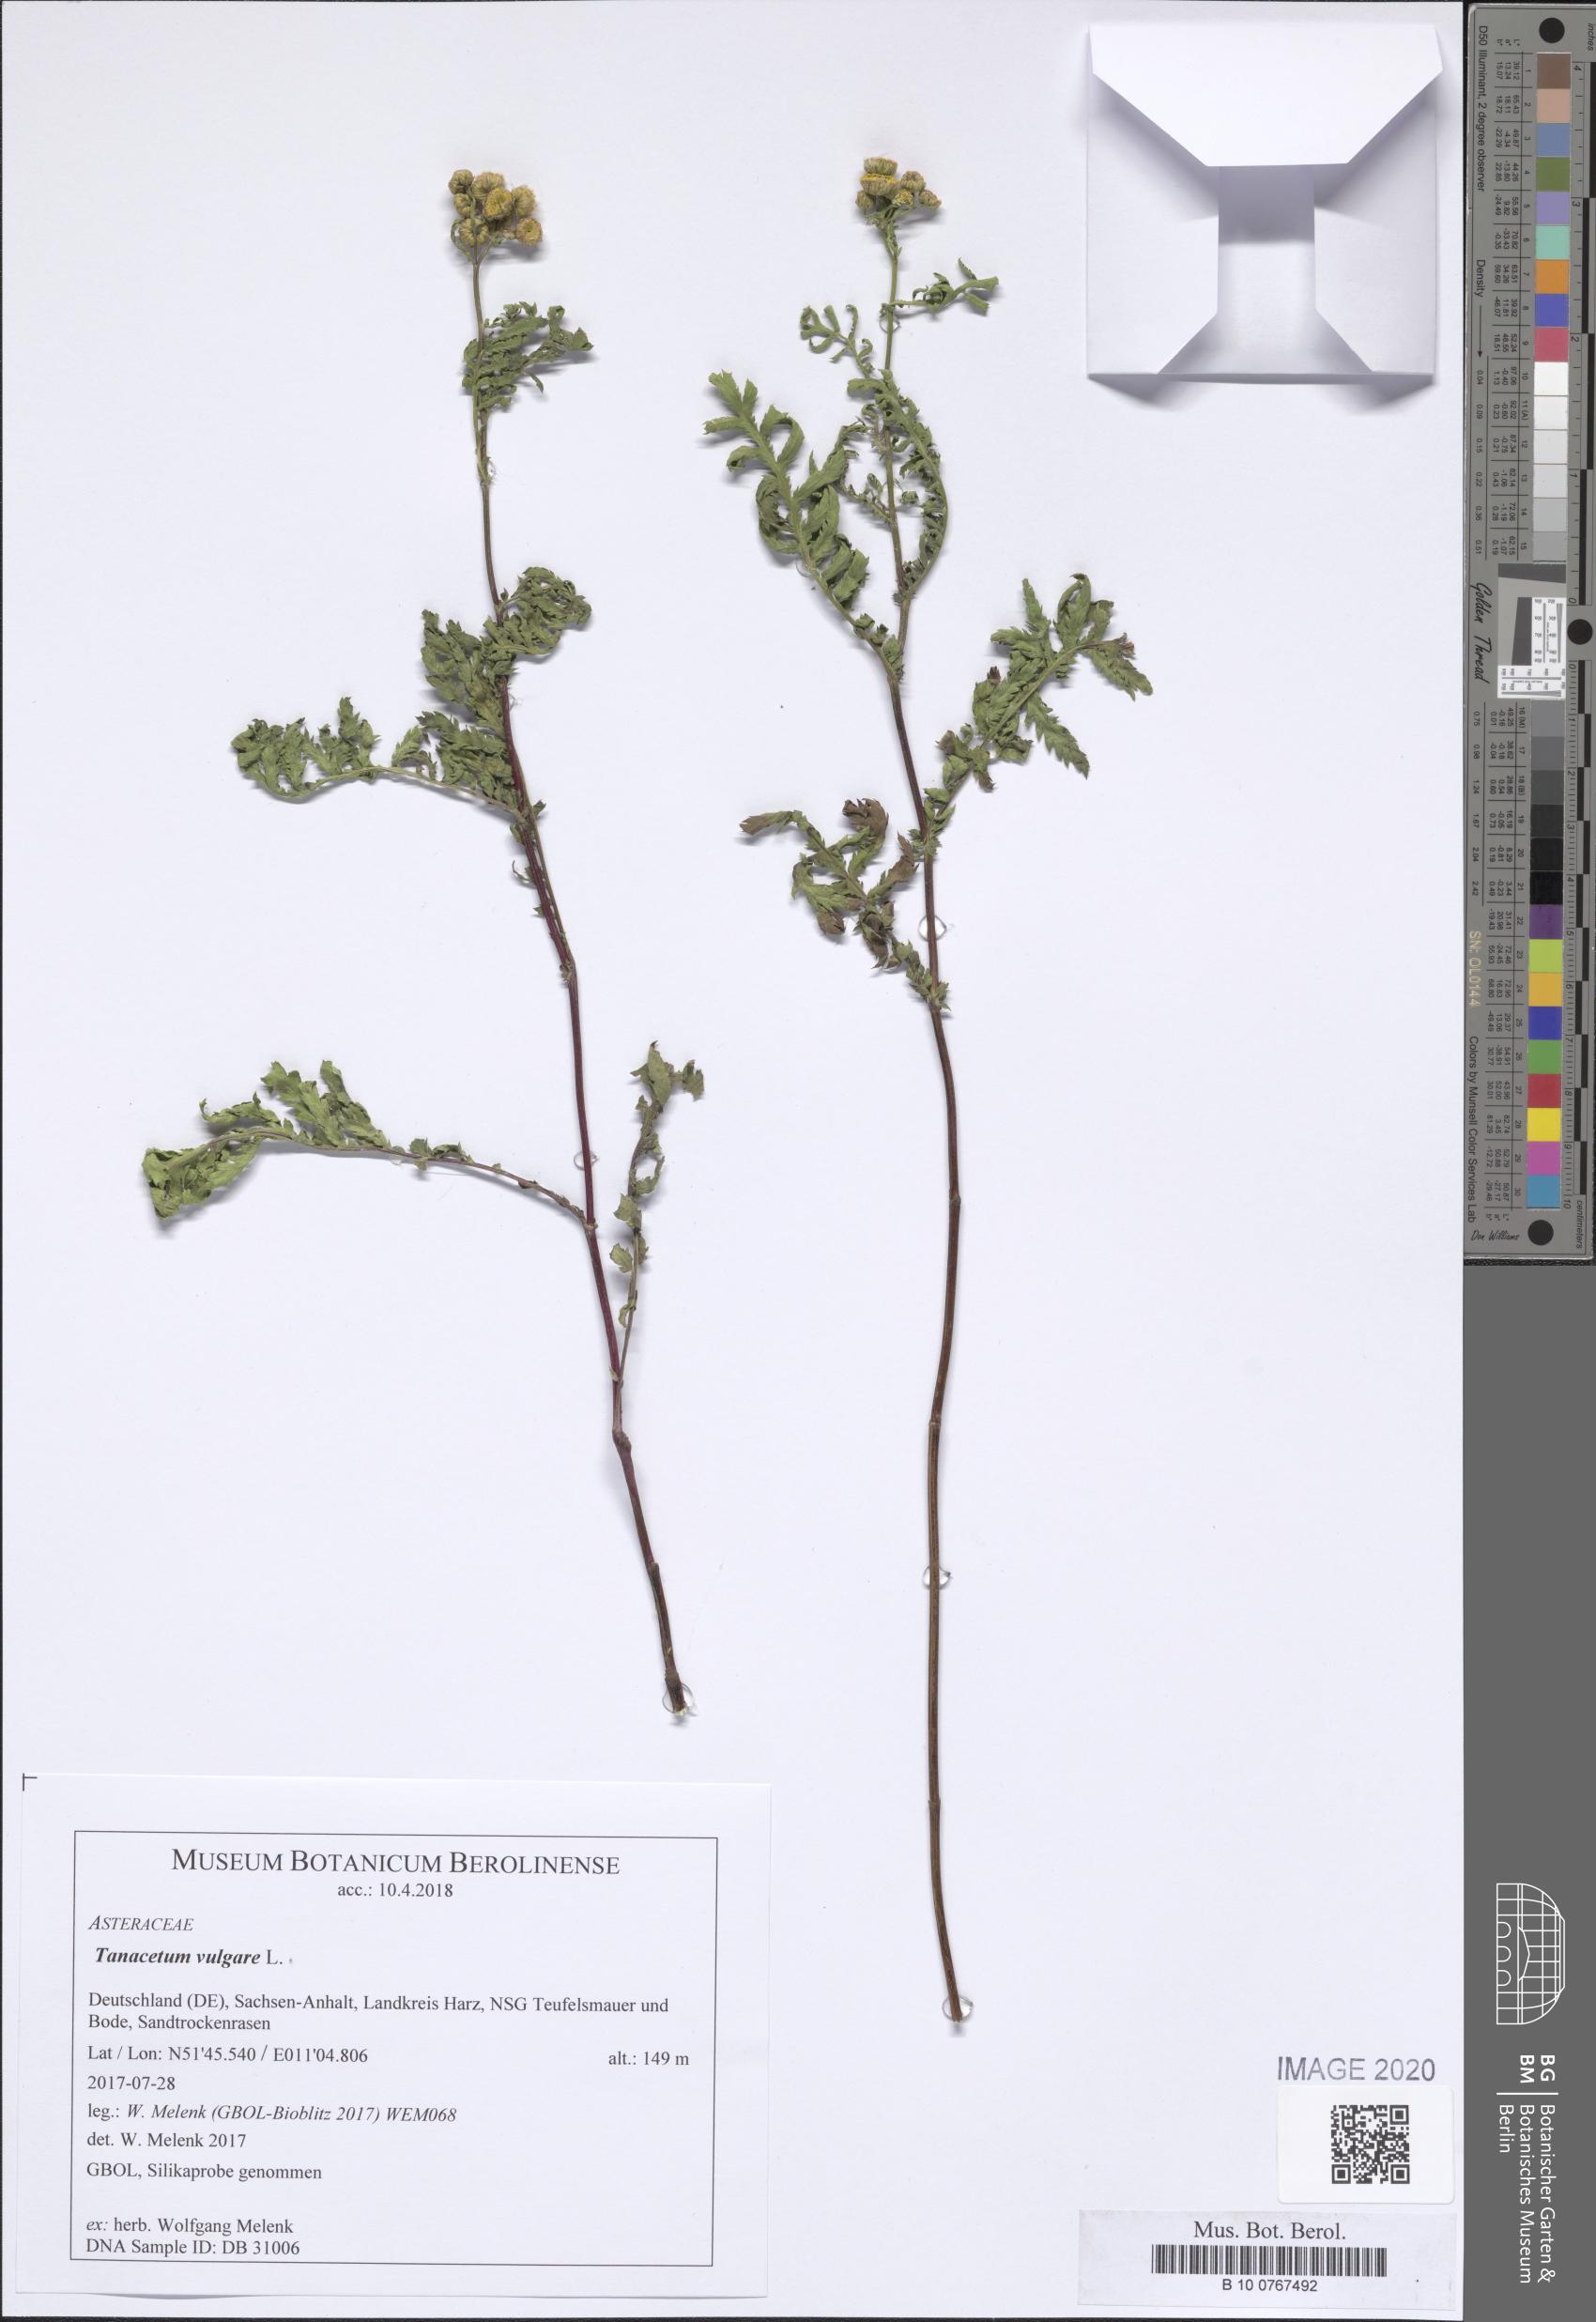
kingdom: Plantae
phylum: Tracheophyta
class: Magnoliopsida
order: Asterales
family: Asteraceae
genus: Tanacetum
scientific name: Tanacetum vulgare
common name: Common tansy
